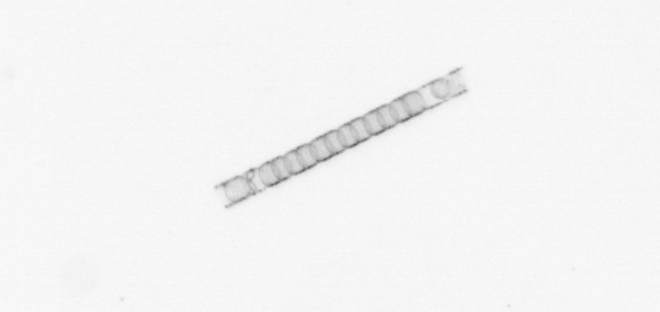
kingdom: Chromista
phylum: Ochrophyta
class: Bacillariophyceae
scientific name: Bacillariophyceae
